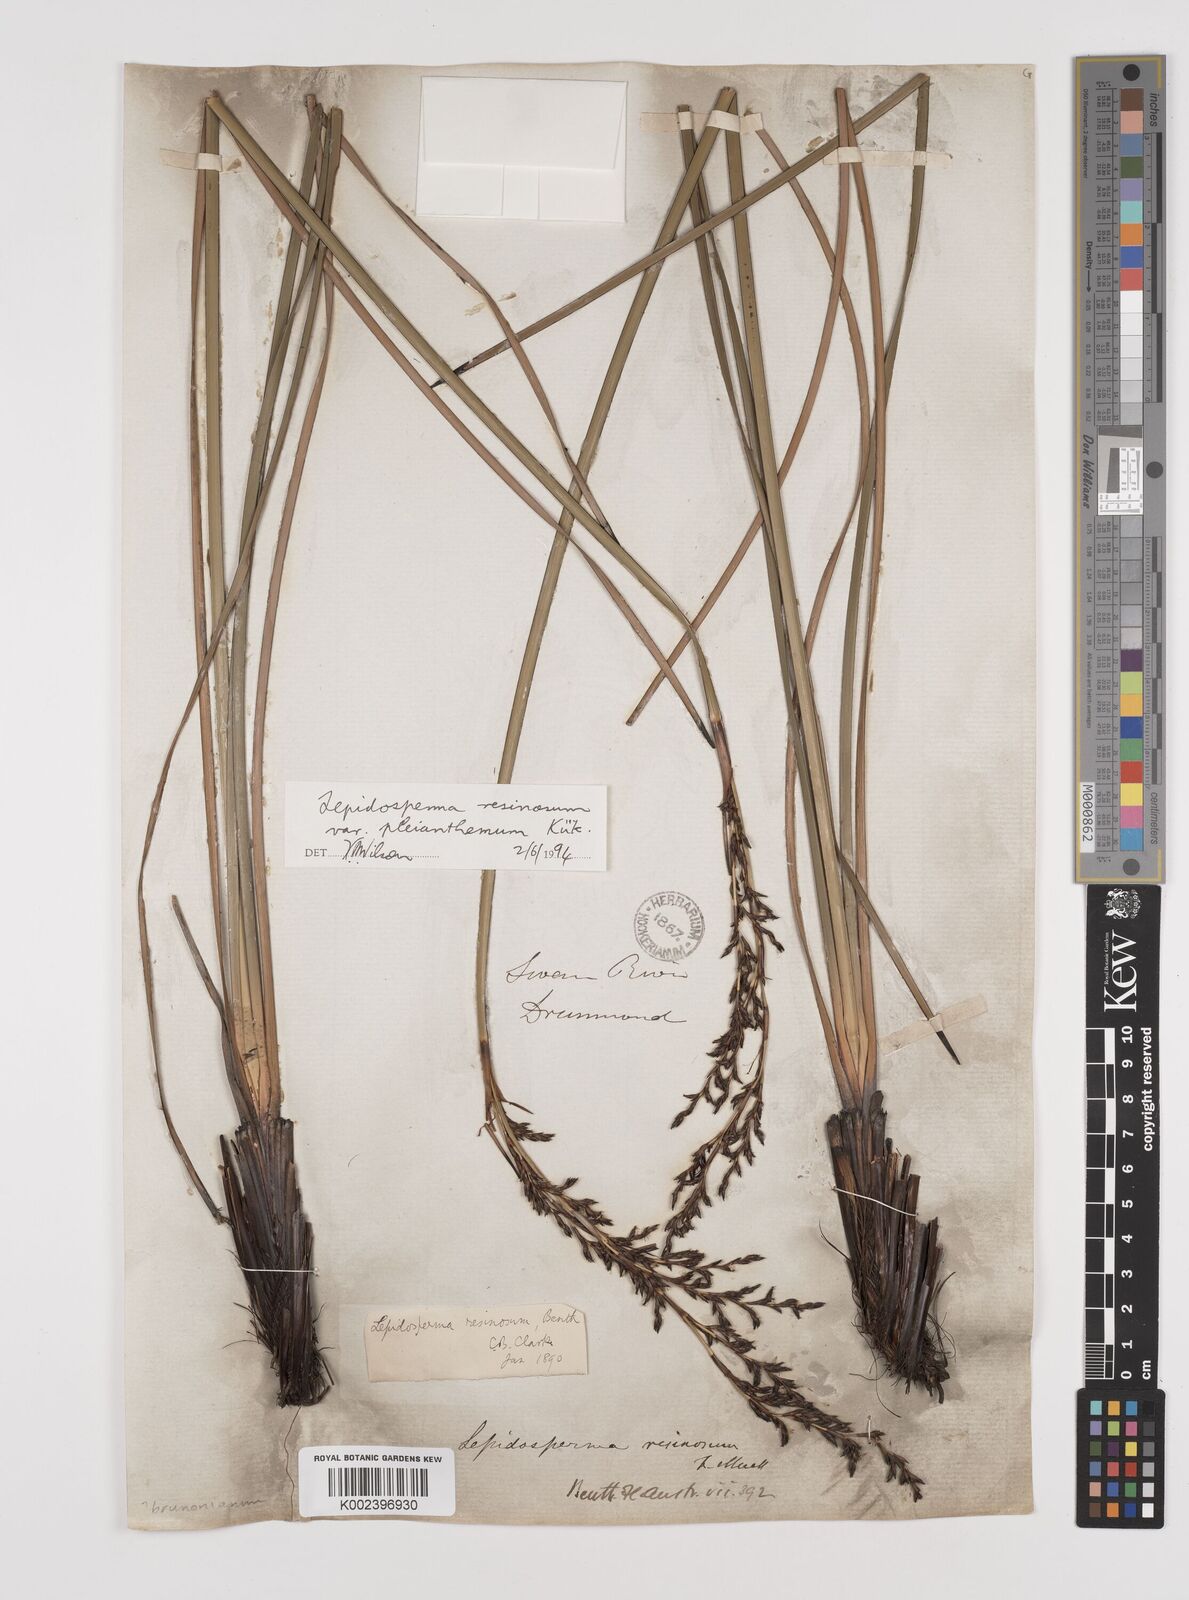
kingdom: Plantae
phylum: Tracheophyta
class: Liliopsida
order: Poales
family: Cyperaceae
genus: Lepidosperma
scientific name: Lepidosperma resinosum
